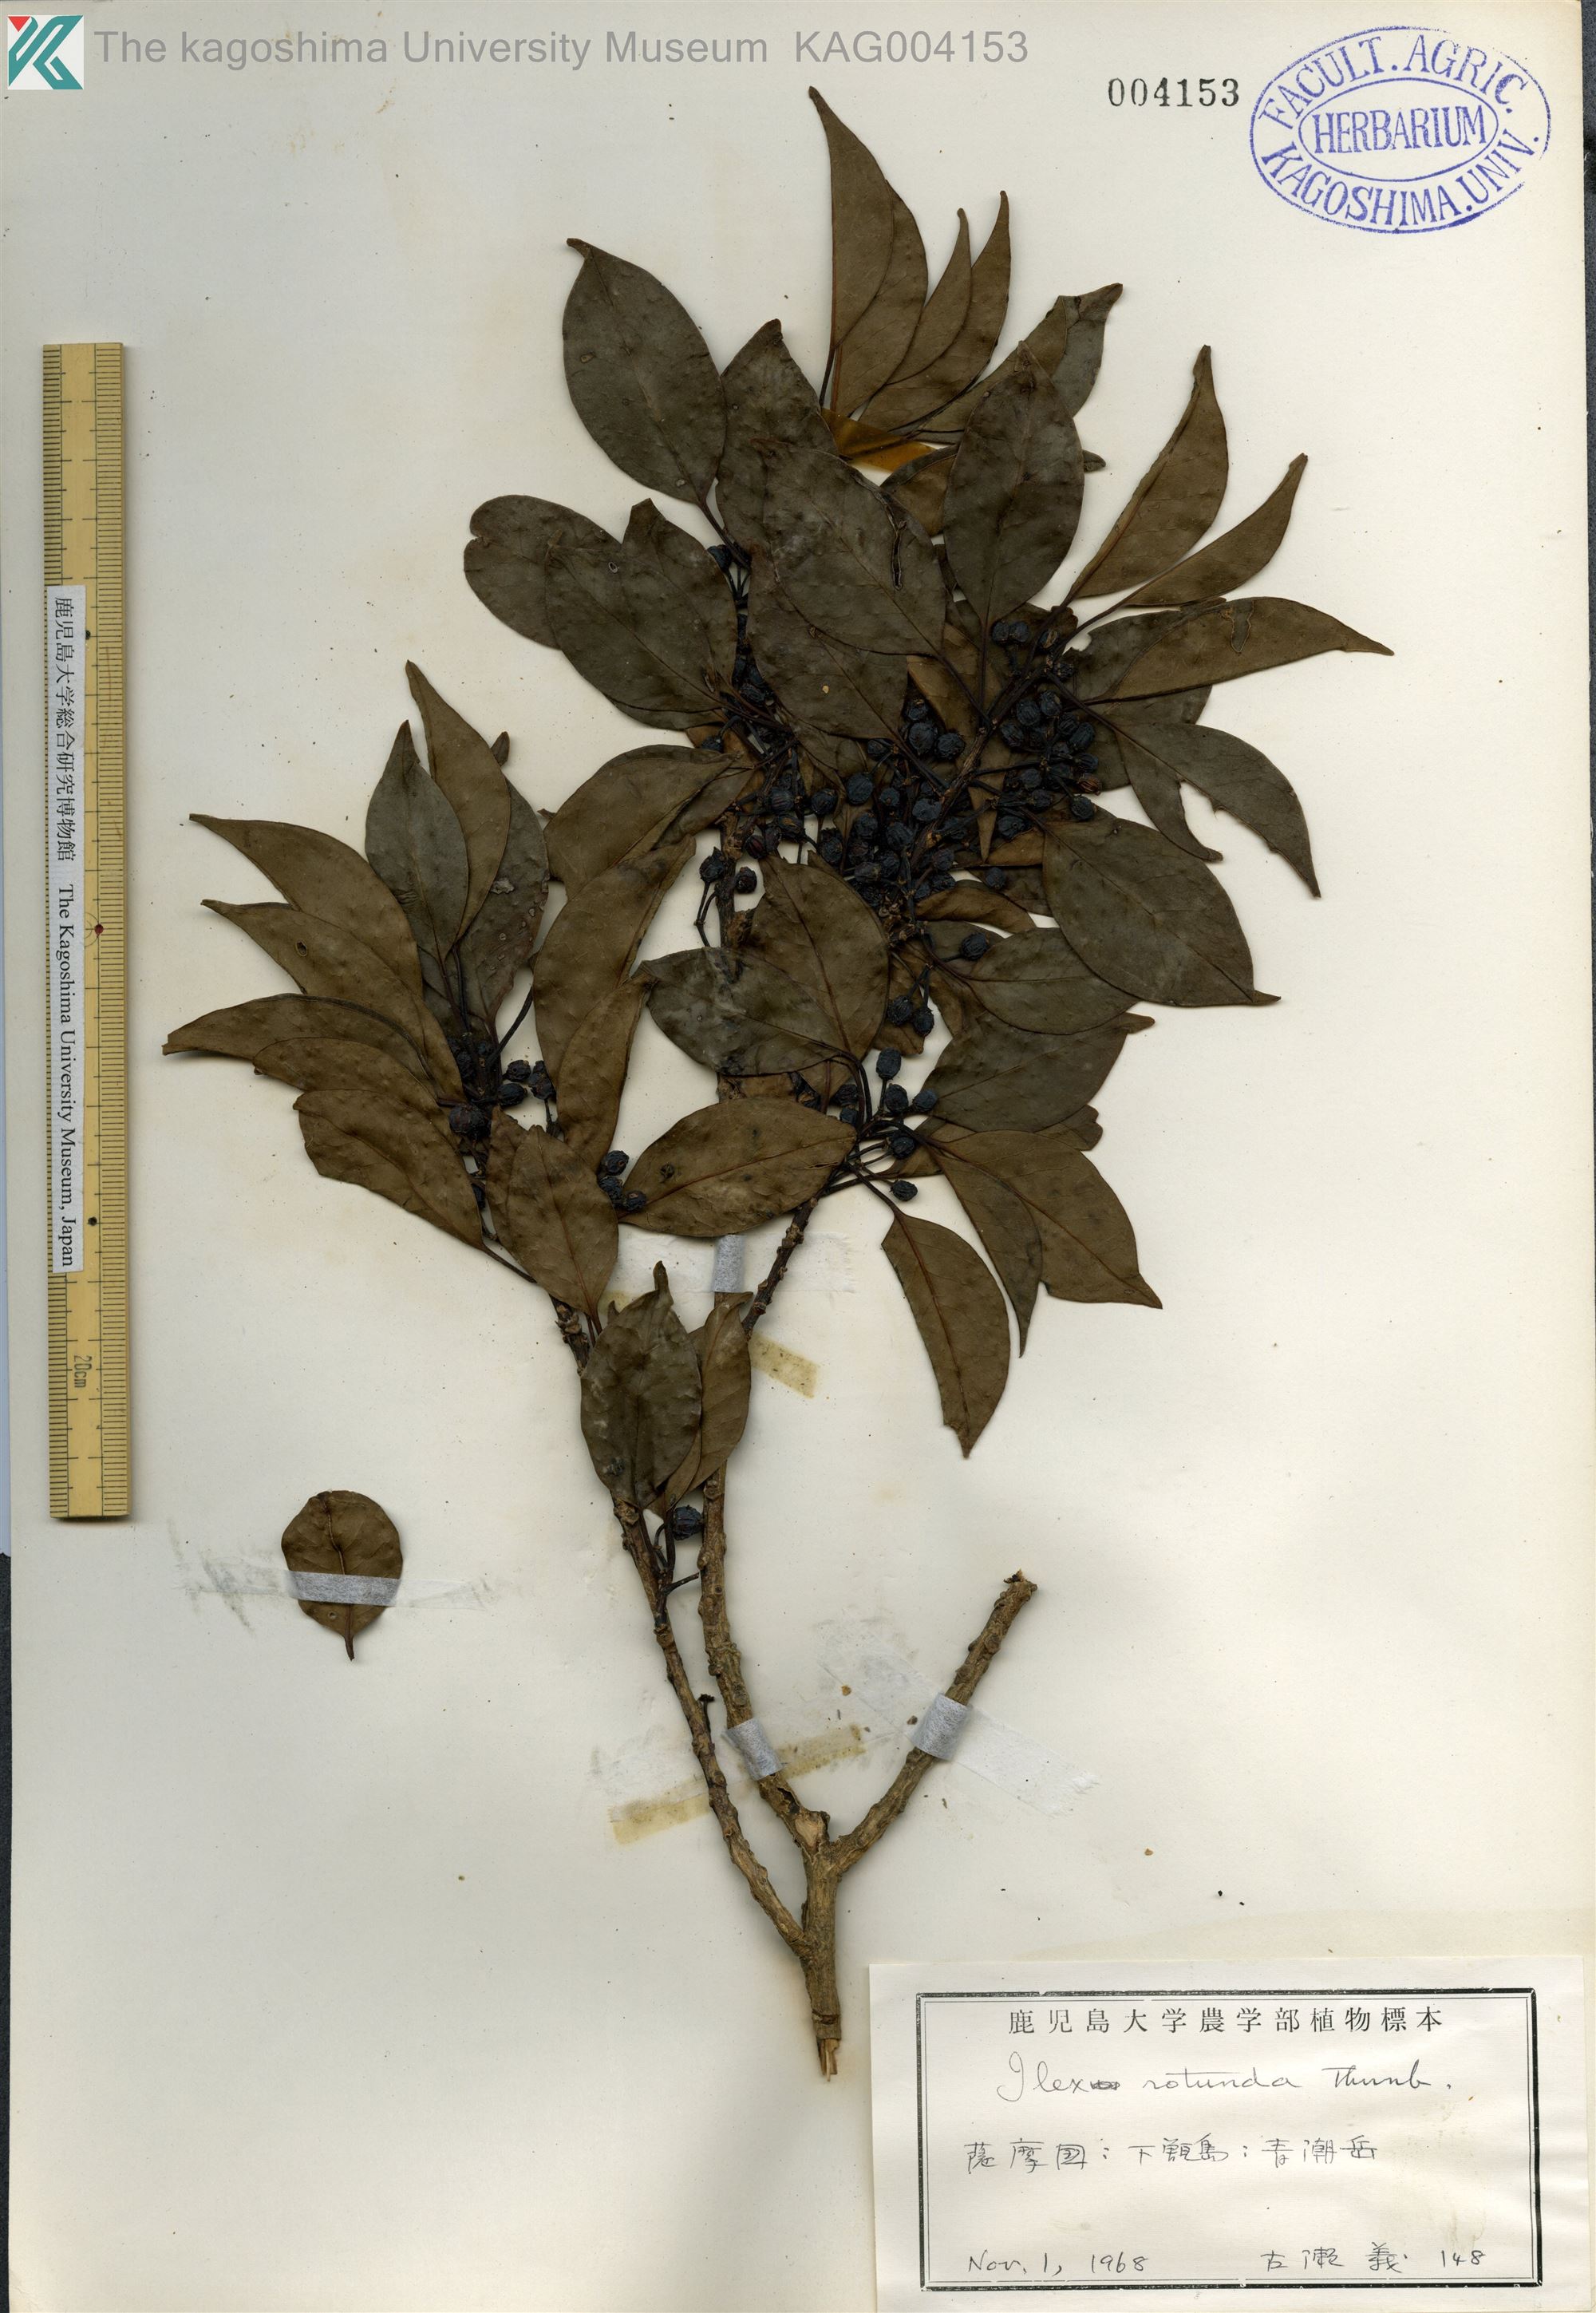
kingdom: Plantae
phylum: Tracheophyta
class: Magnoliopsida
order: Aquifoliales
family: Aquifoliaceae
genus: Ilex
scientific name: Ilex rotunda
